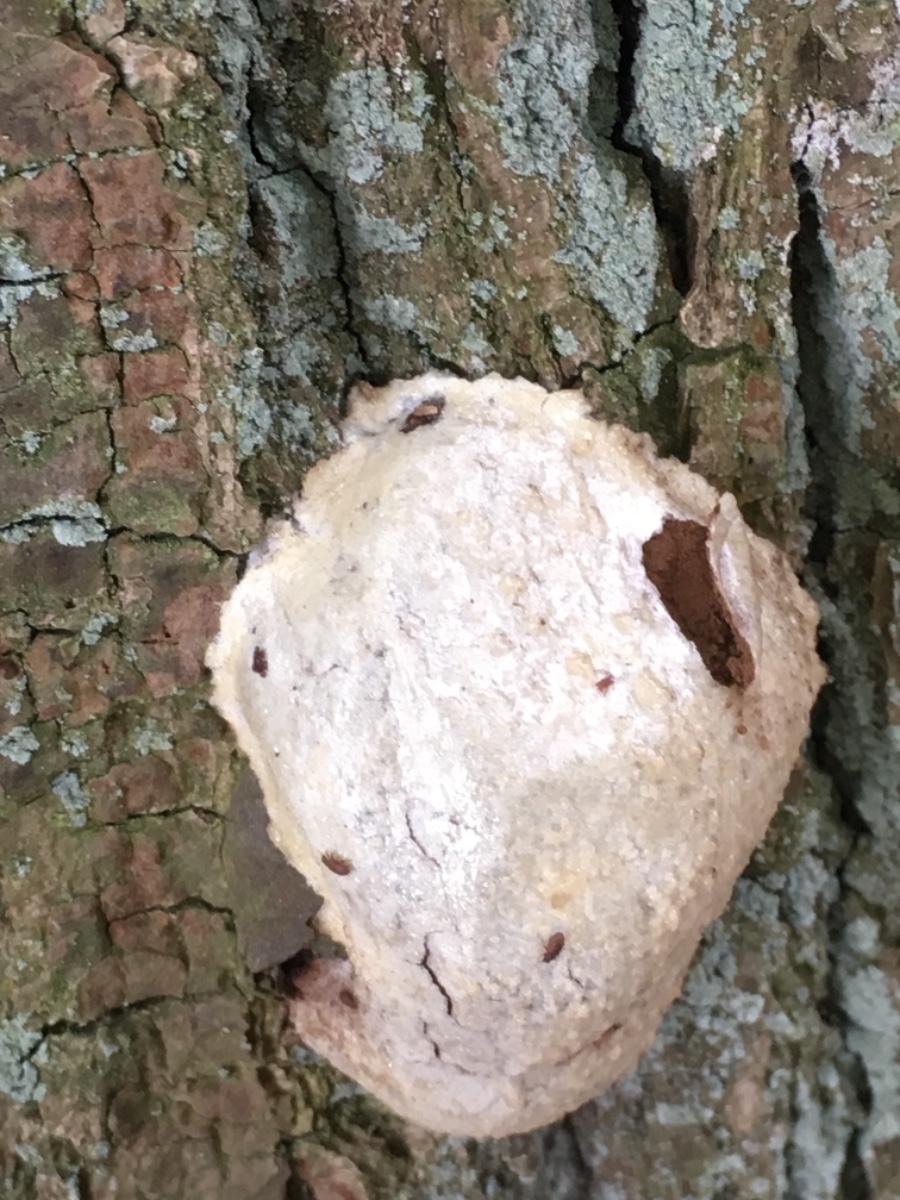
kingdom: Protozoa
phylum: Mycetozoa
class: Myxomycetes
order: Cribrariales
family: Tubiferaceae
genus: Reticularia
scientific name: Reticularia lycoperdon
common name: skinnende støvpude
